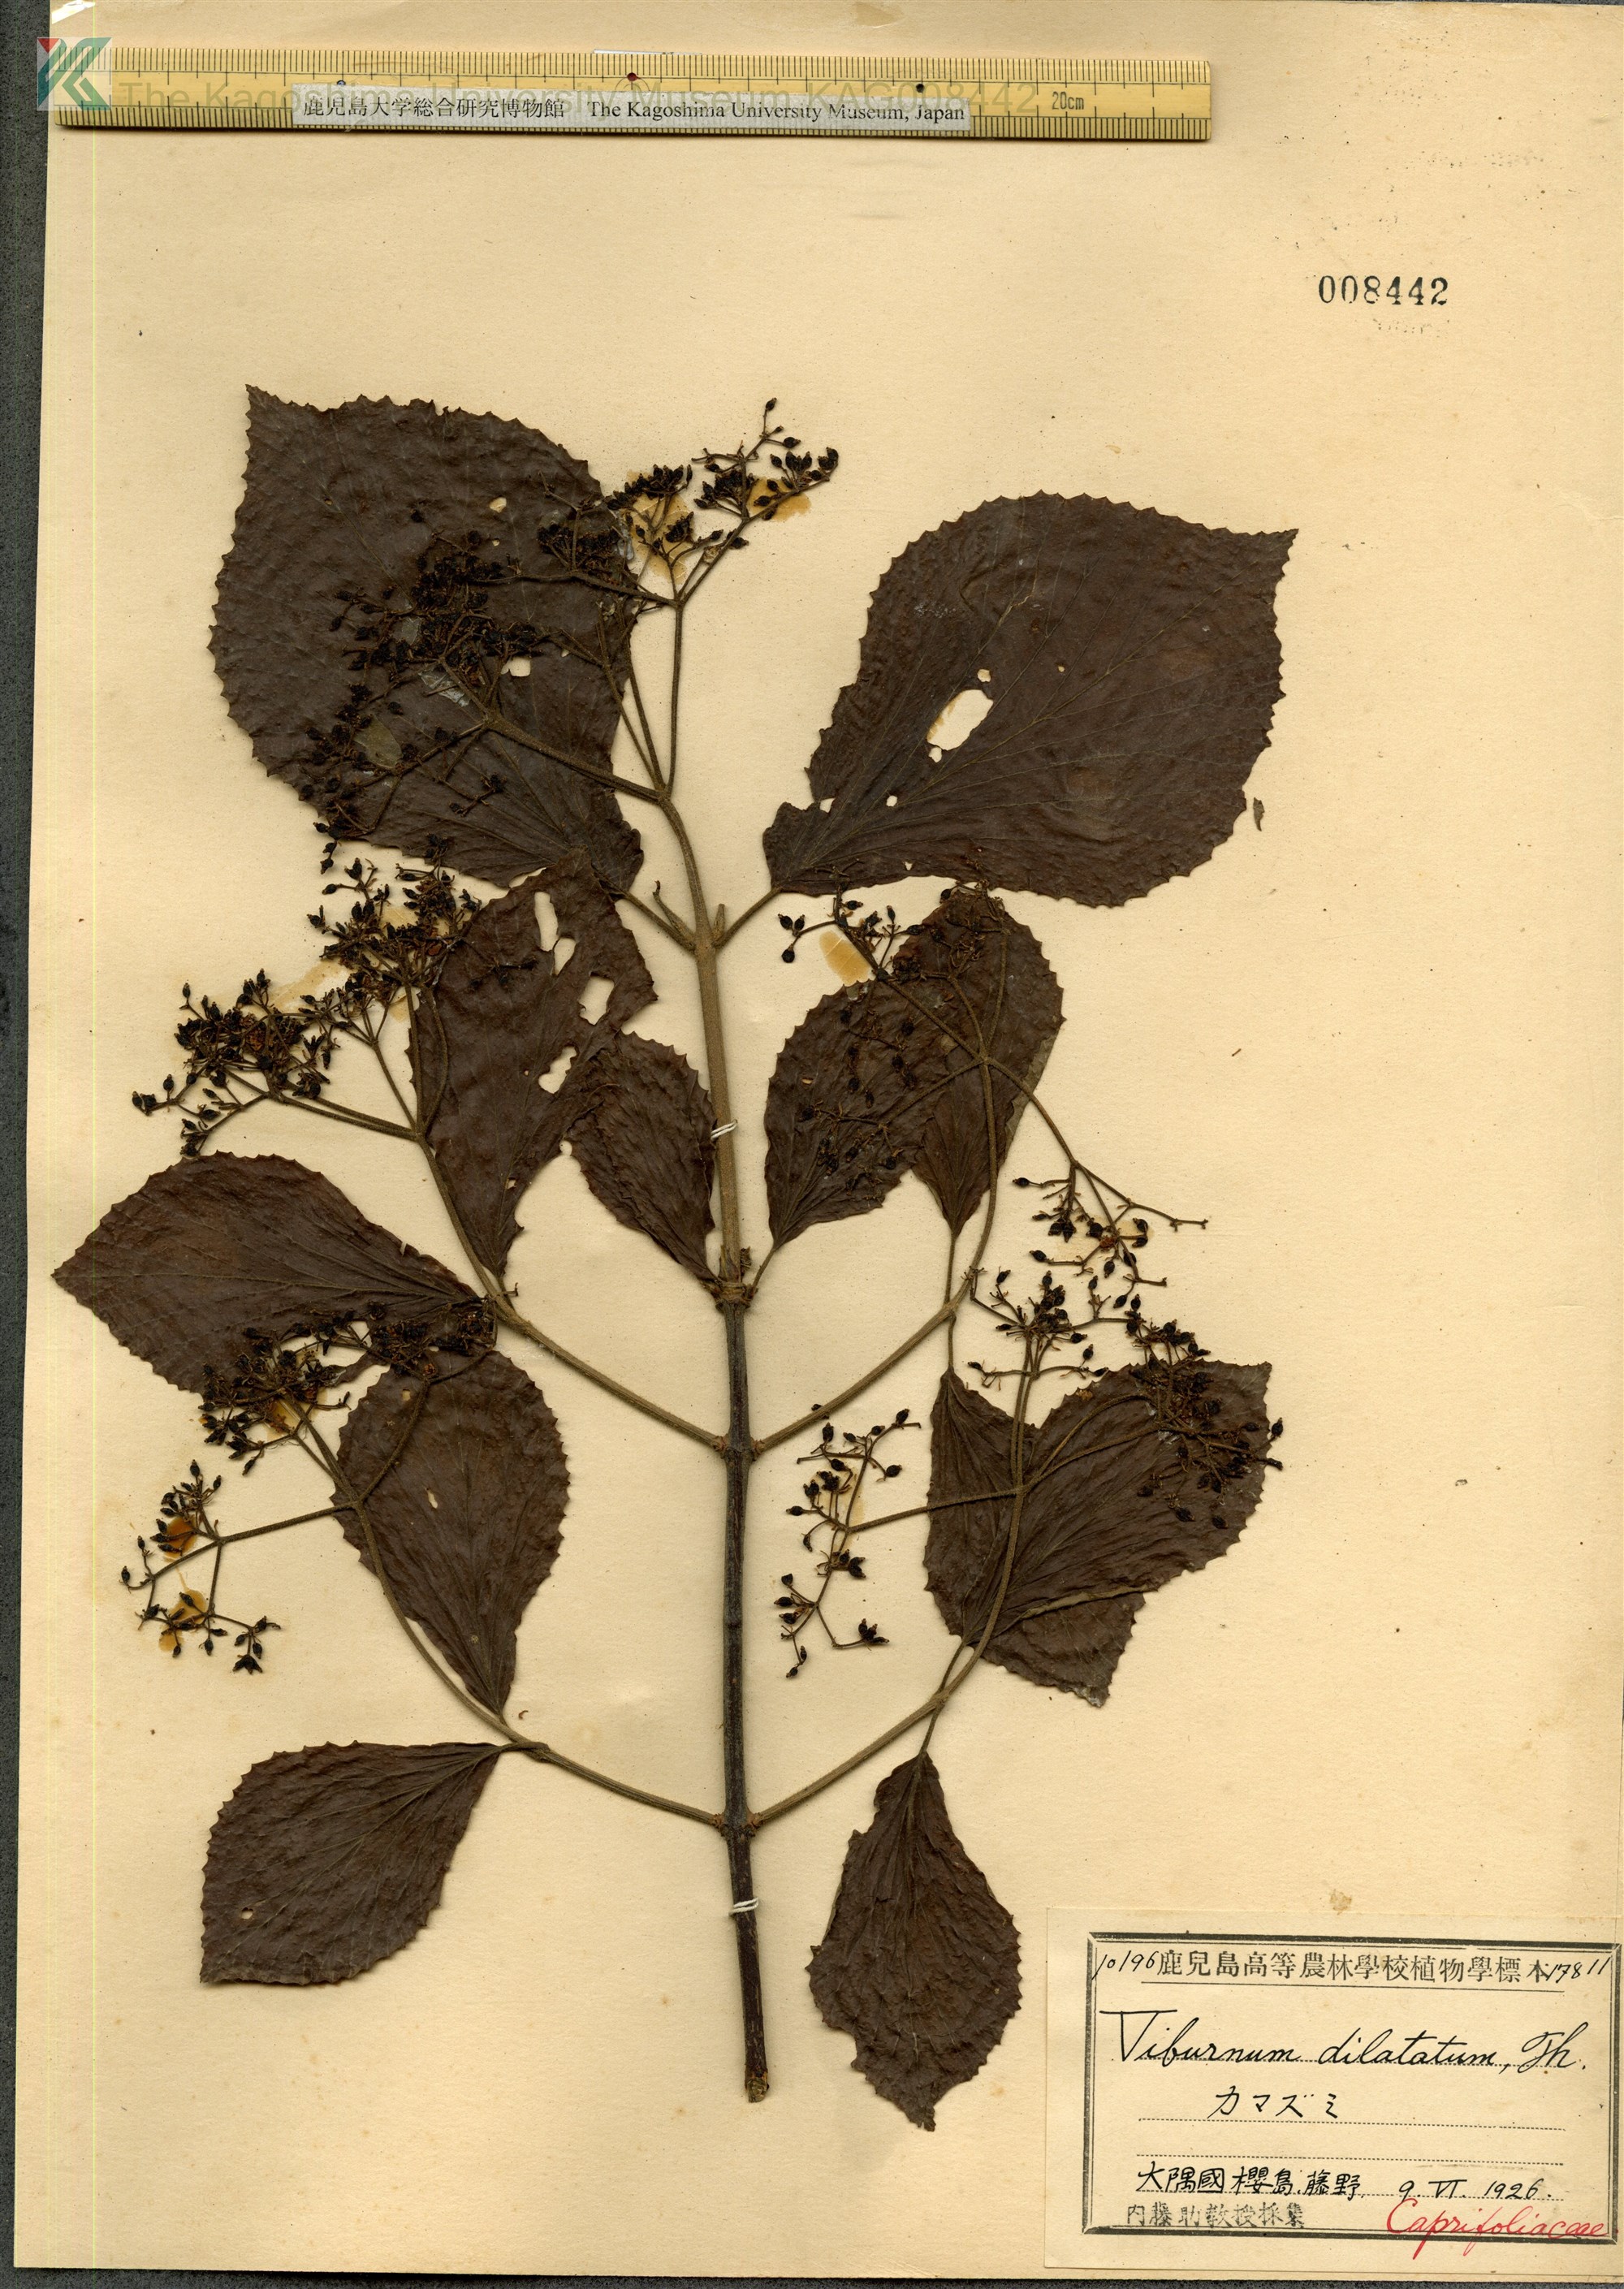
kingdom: Plantae
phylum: Tracheophyta
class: Magnoliopsida
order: Dipsacales
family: Viburnaceae
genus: Viburnum
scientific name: Viburnum dilatatum
